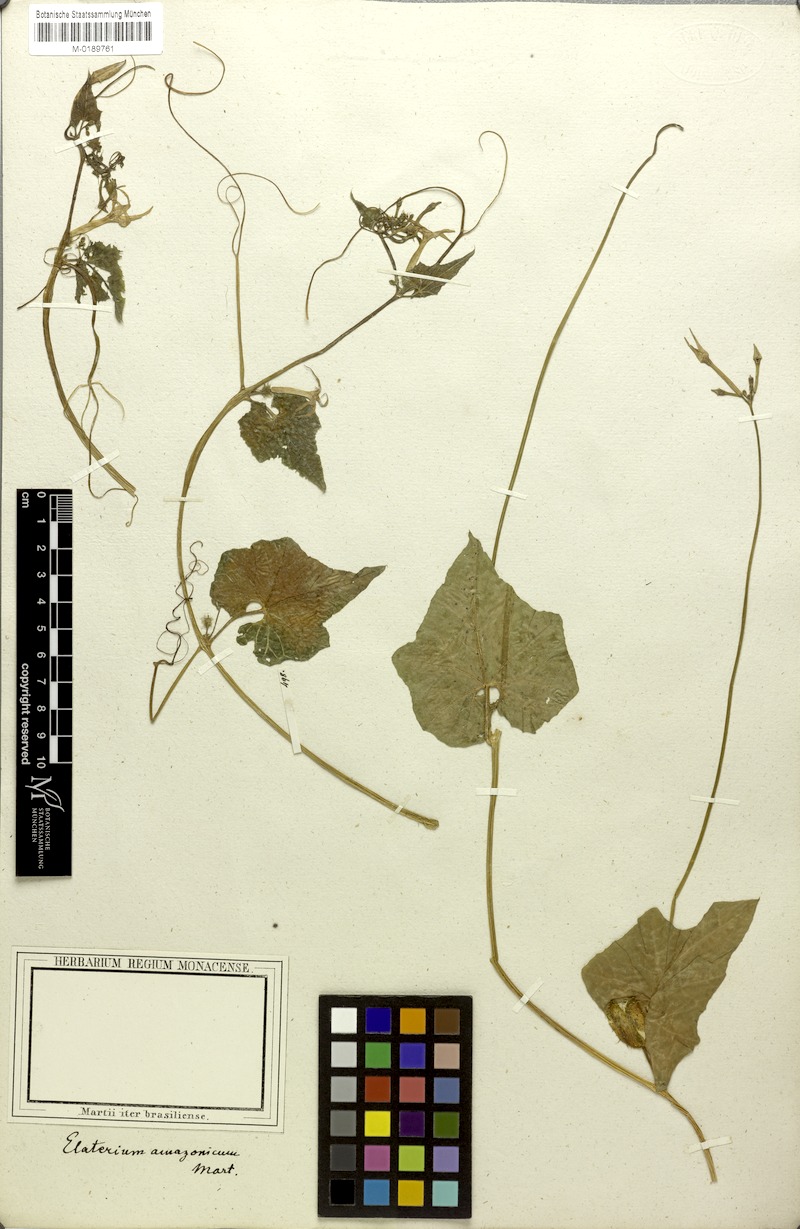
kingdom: Plantae
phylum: Tracheophyta
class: Magnoliopsida
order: Cucurbitales
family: Cucurbitaceae
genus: Cyclanthera
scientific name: Cyclanthera carthagenensis
